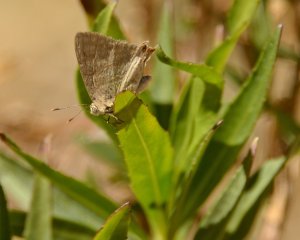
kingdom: Animalia
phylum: Arthropoda
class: Insecta
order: Lepidoptera
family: Lycaenidae
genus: Dolymorpha
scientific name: Dolymorpha jada
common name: Creamy Stripe-Streak
